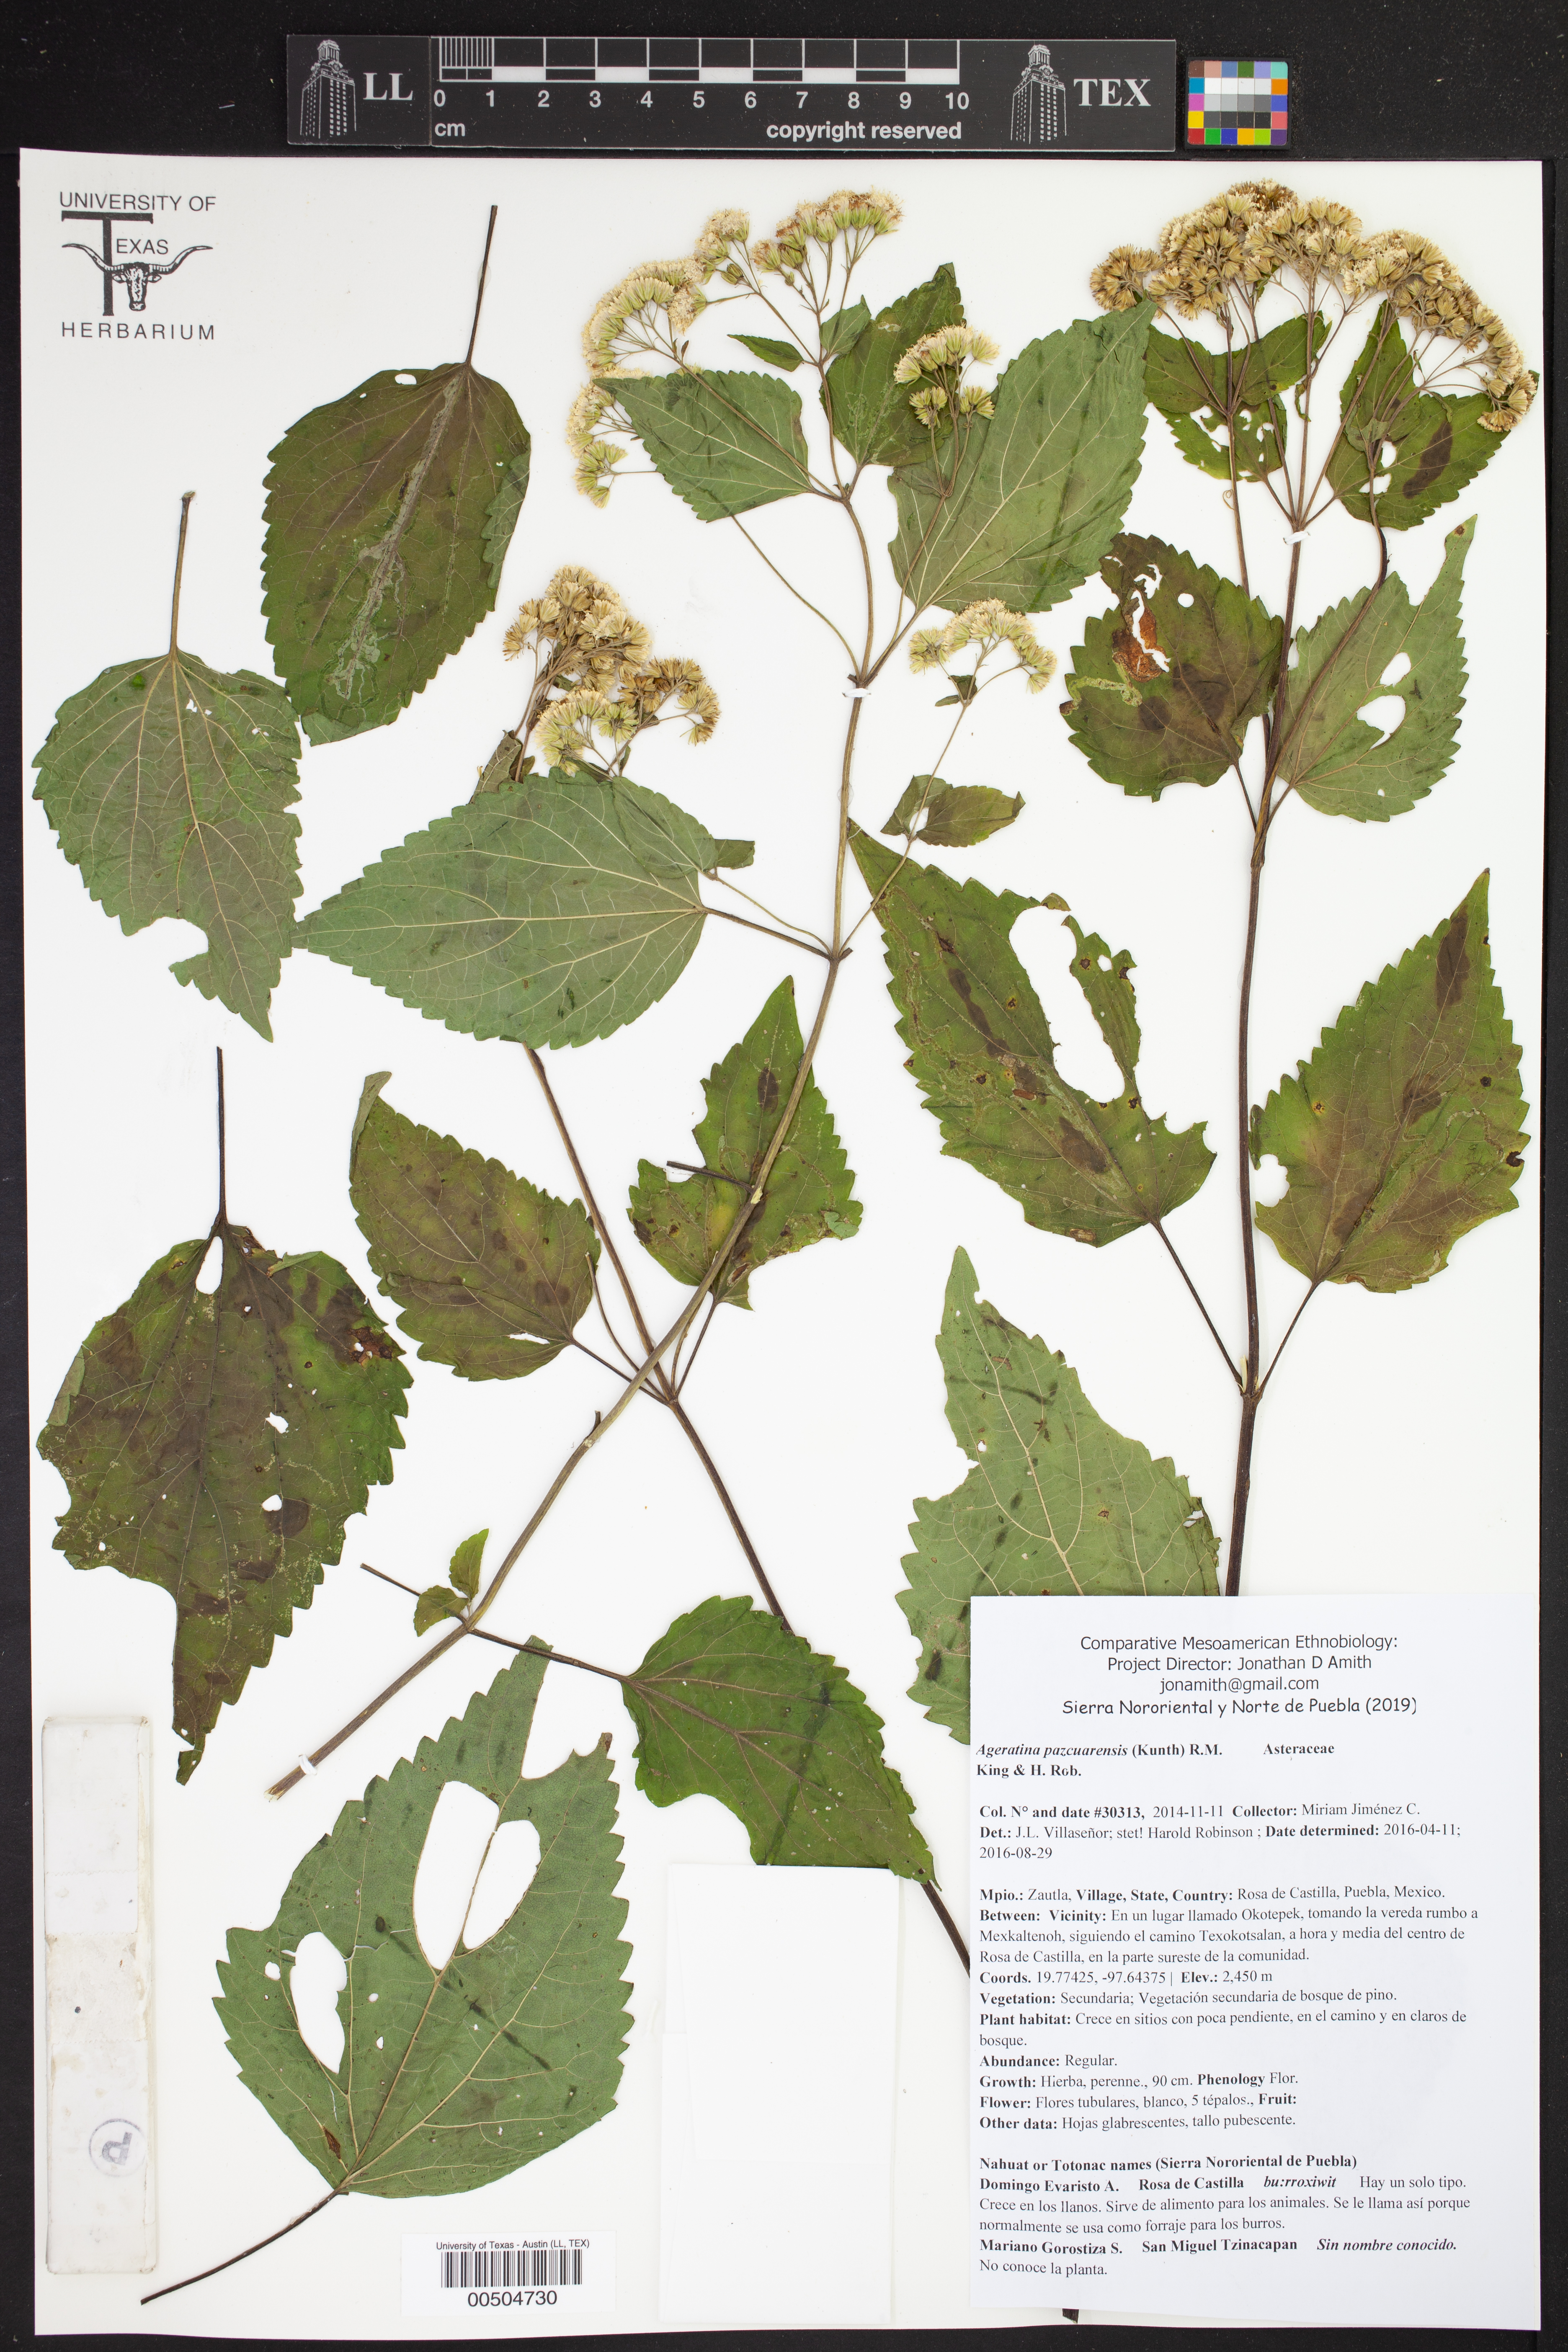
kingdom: Plantae
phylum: Tracheophyta
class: Magnoliopsida
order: Asterales
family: Asteraceae
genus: Ageratina
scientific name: Ageratina pazcuarensis
